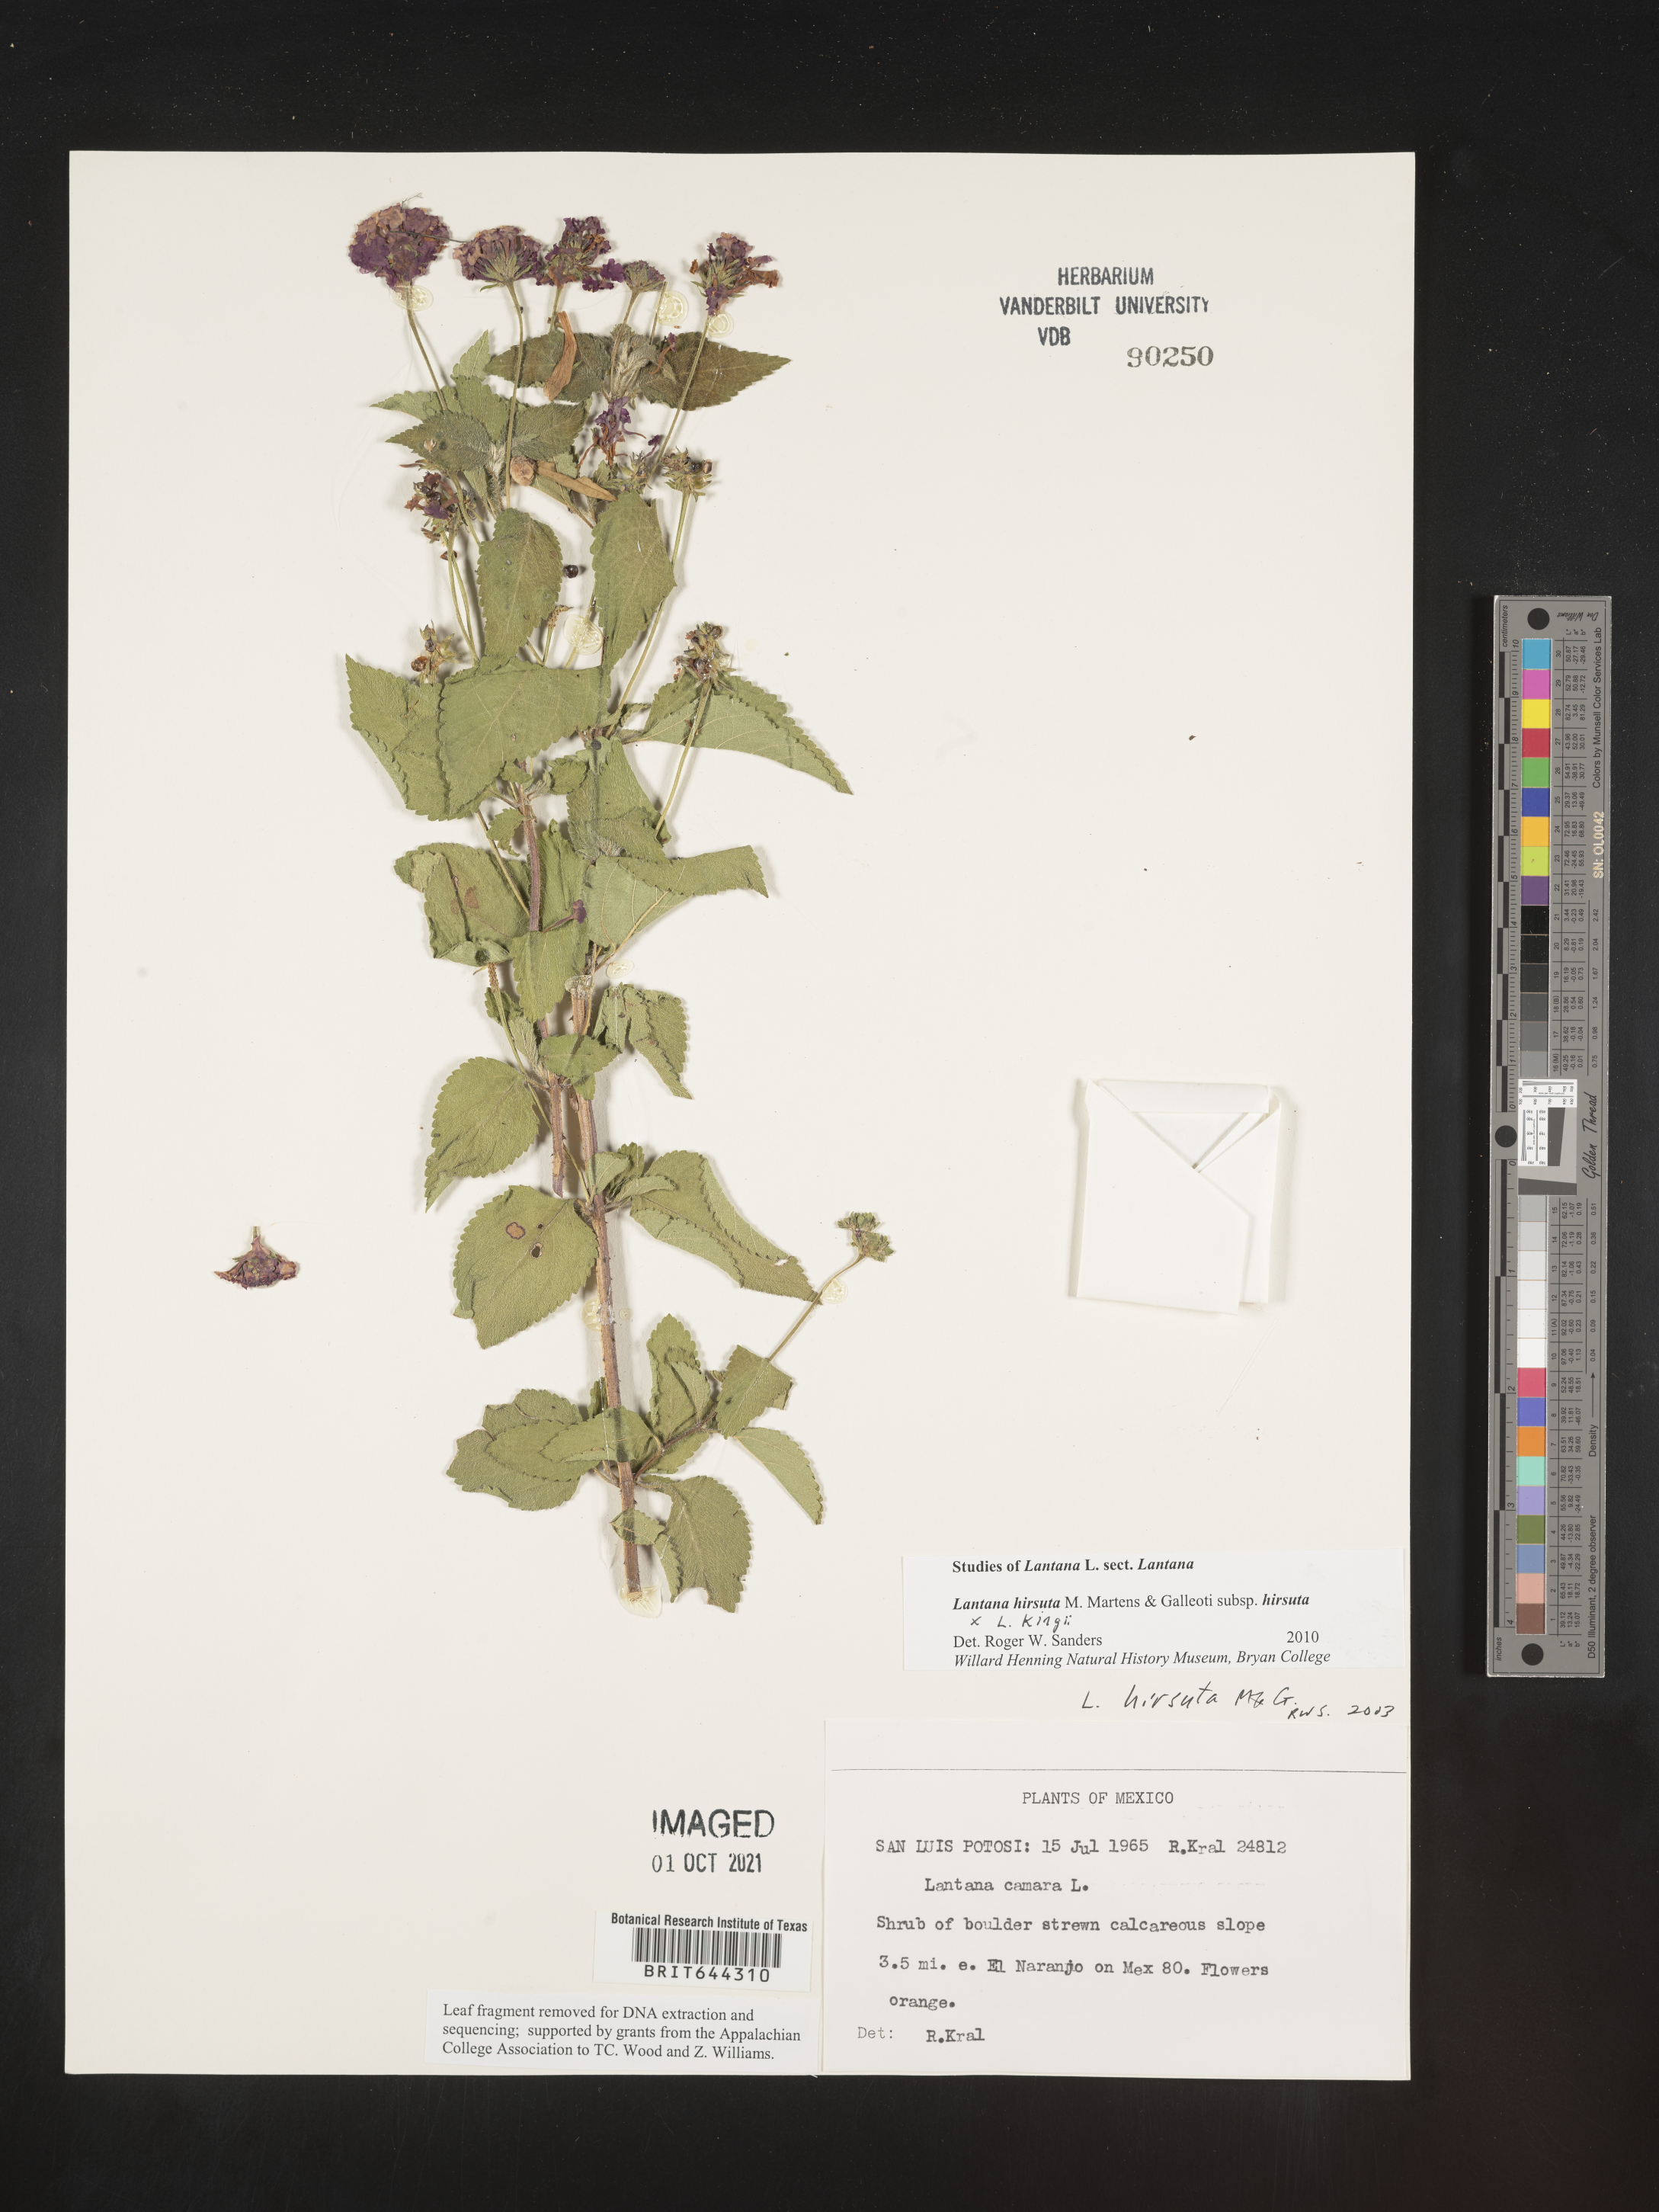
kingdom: Plantae
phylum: Tracheophyta
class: Magnoliopsida
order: Lamiales
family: Verbenaceae
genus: Lantana
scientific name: Lantana
